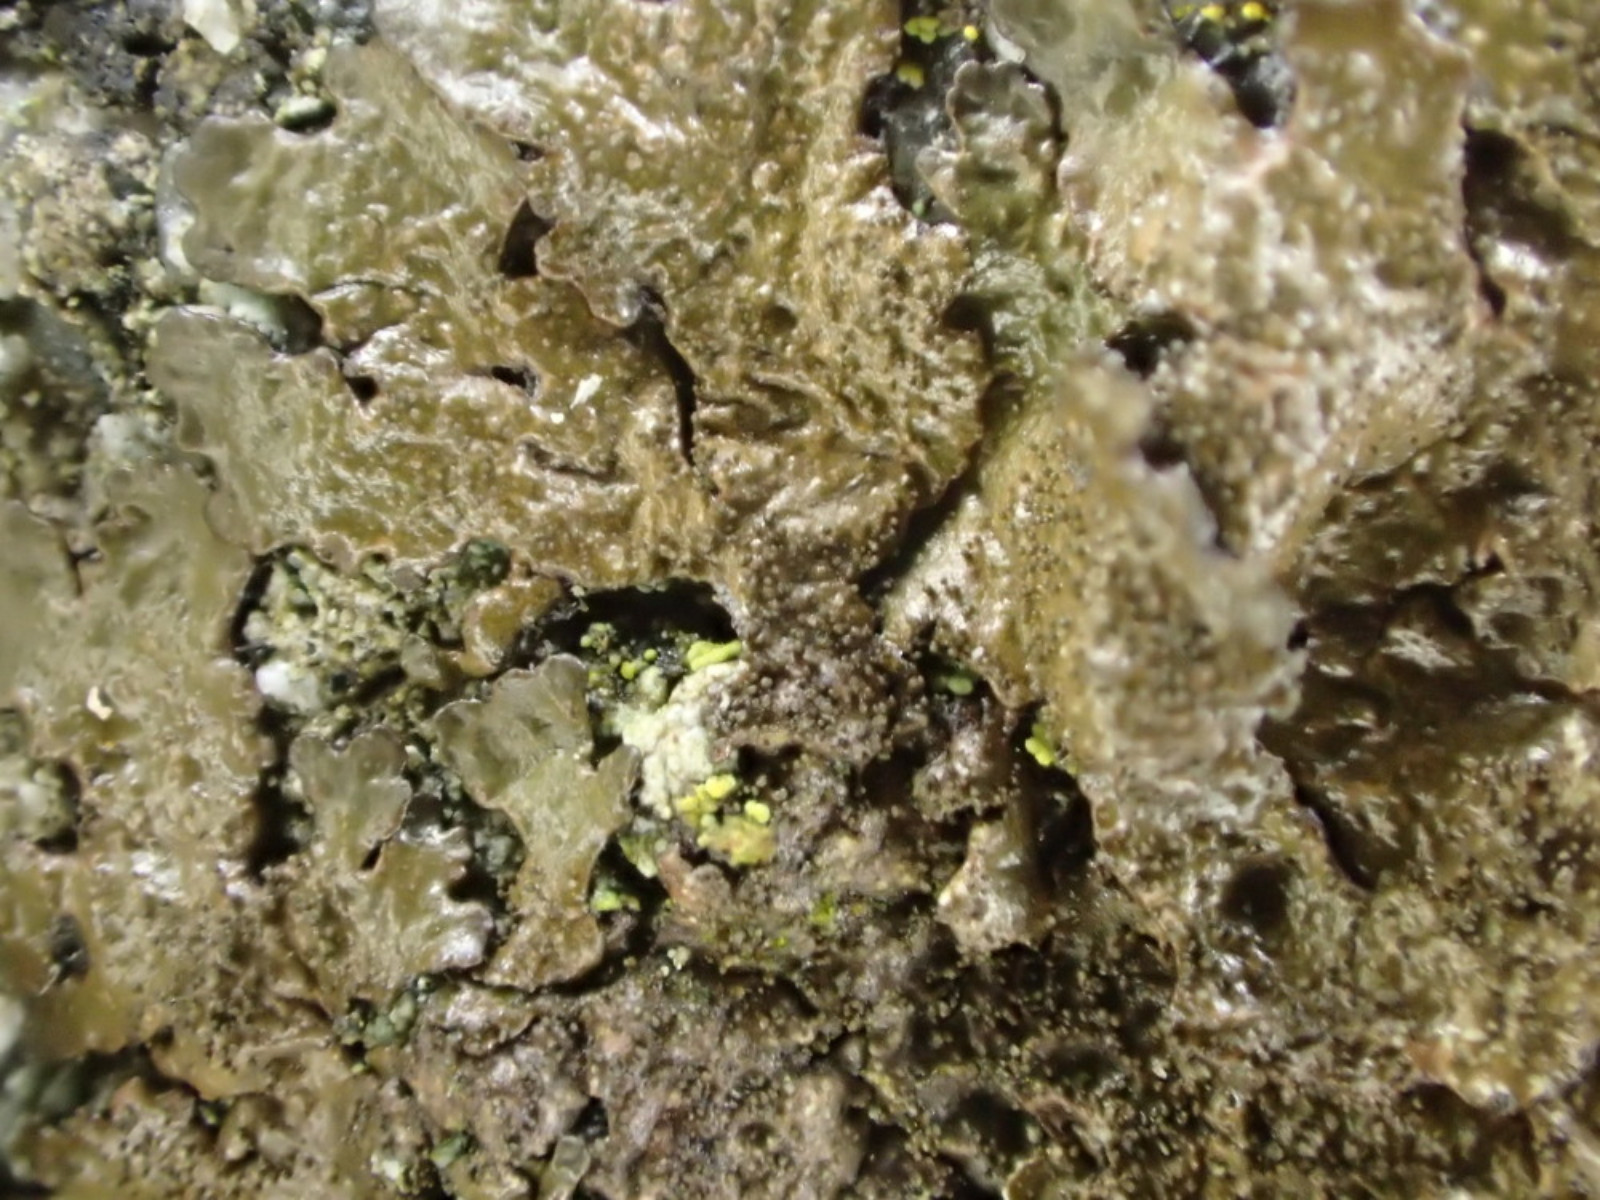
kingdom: Fungi
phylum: Ascomycota
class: Lecanoromycetes
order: Lecanorales
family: Parmeliaceae
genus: Melanelixia
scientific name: Melanelixia glabratula
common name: glinsende skållav
